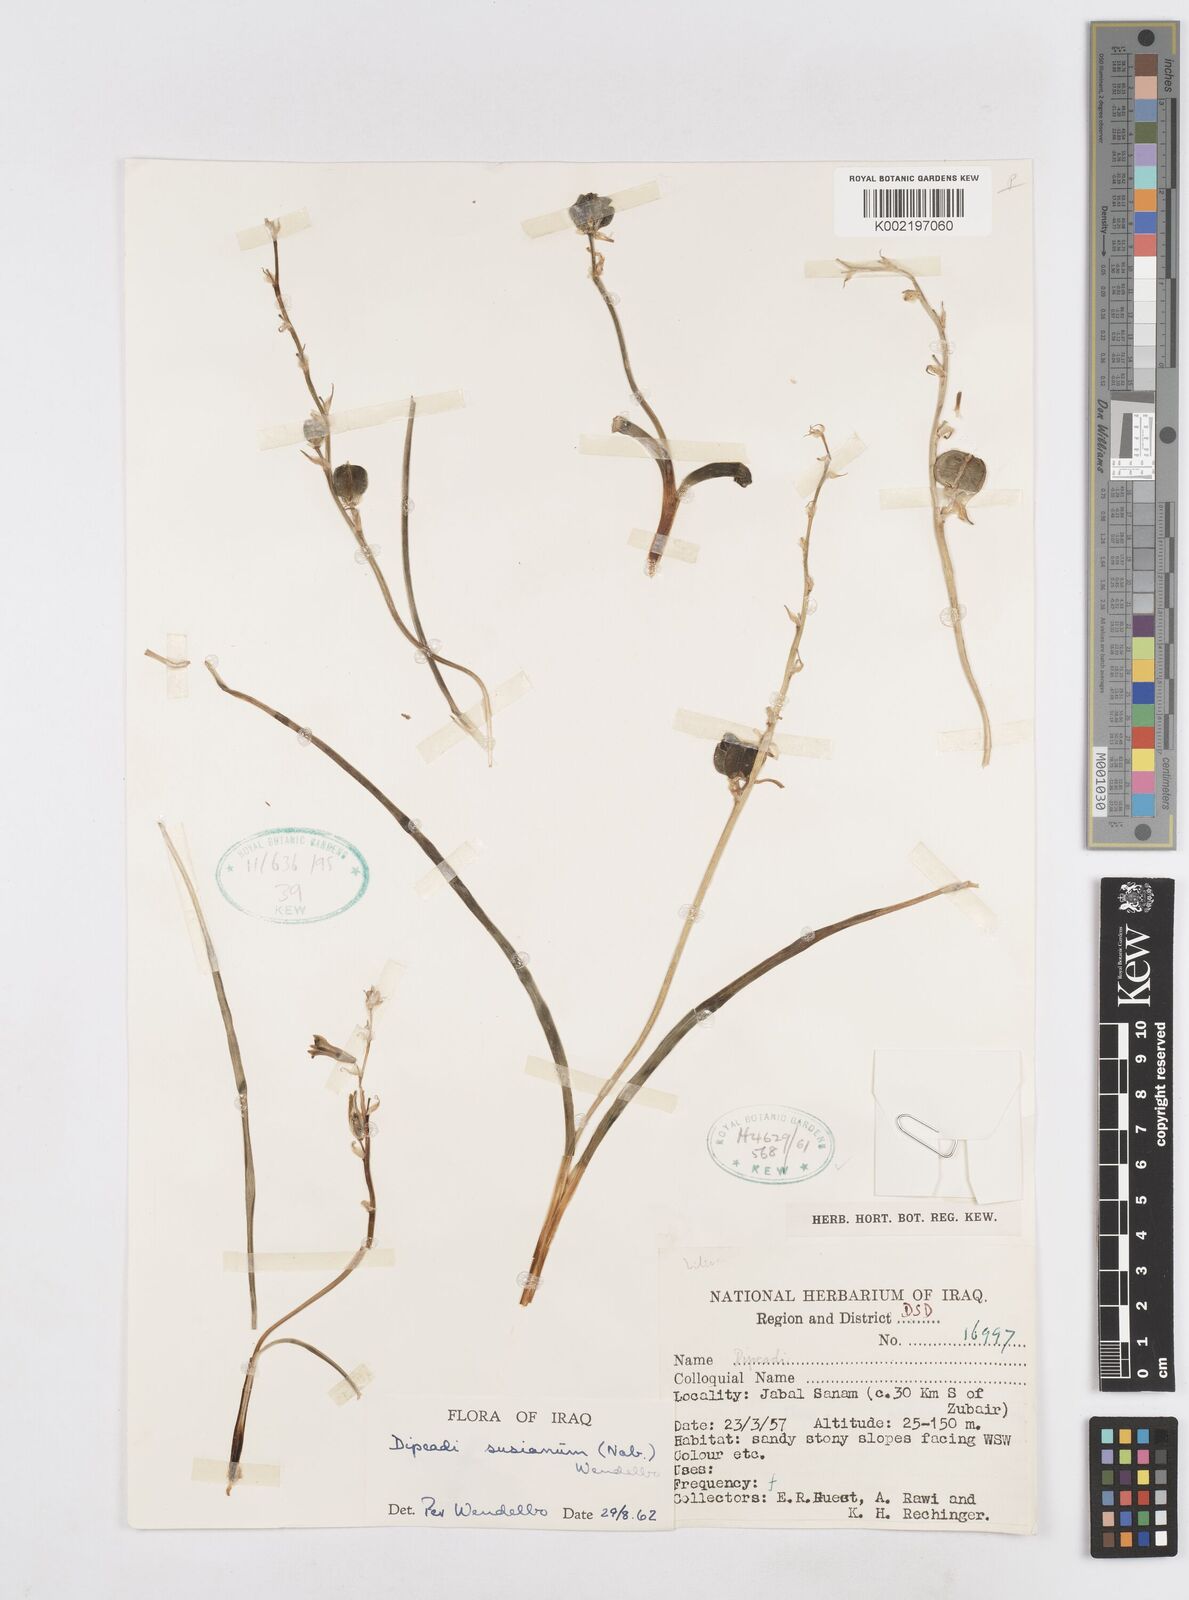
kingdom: Plantae
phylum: Tracheophyta
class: Liliopsida
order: Asparagales
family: Asparagaceae
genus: Dipcadi
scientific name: Dipcadi susianum
